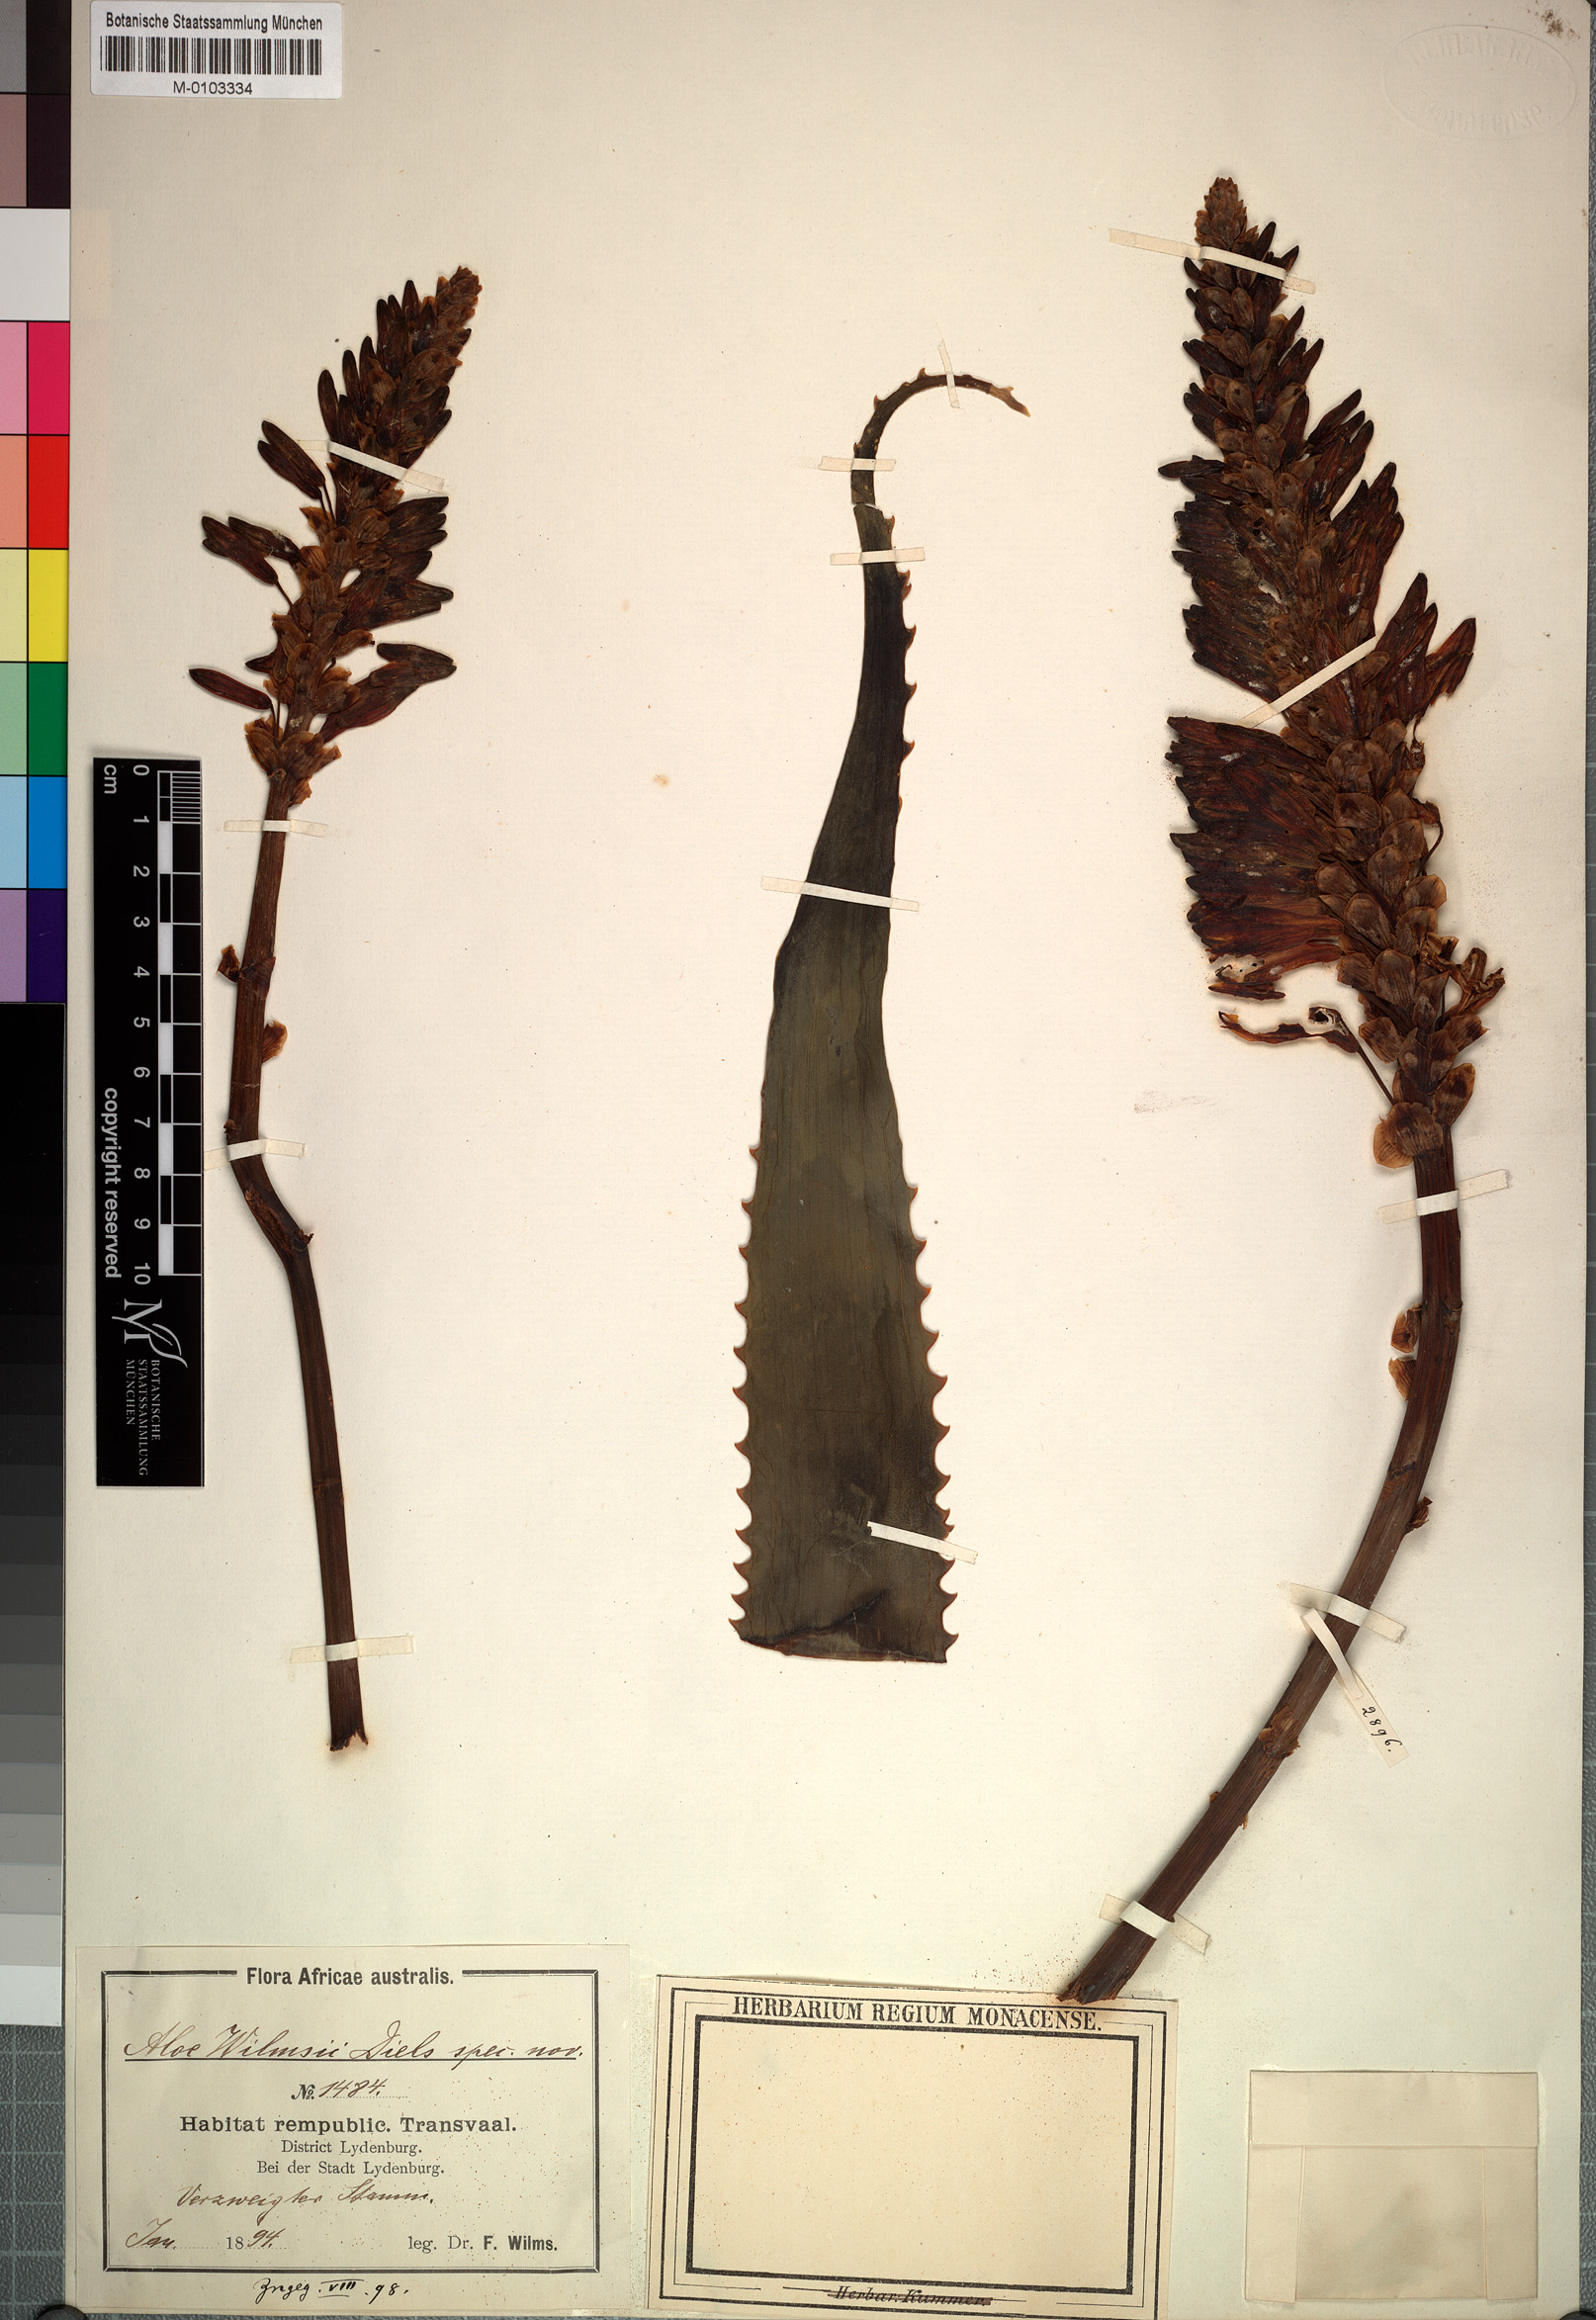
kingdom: Plantae
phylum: Tracheophyta
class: Liliopsida
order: Asparagales
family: Asphodelaceae
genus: Aloe
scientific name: Aloe arborescens
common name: Candelabra aloe
